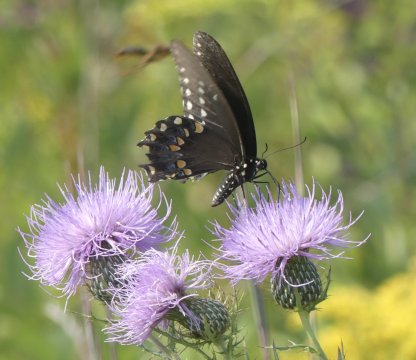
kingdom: Animalia
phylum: Arthropoda
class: Insecta
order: Lepidoptera
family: Papilionidae
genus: Pterourus
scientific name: Pterourus troilus
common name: Spicebush Swallowtail
